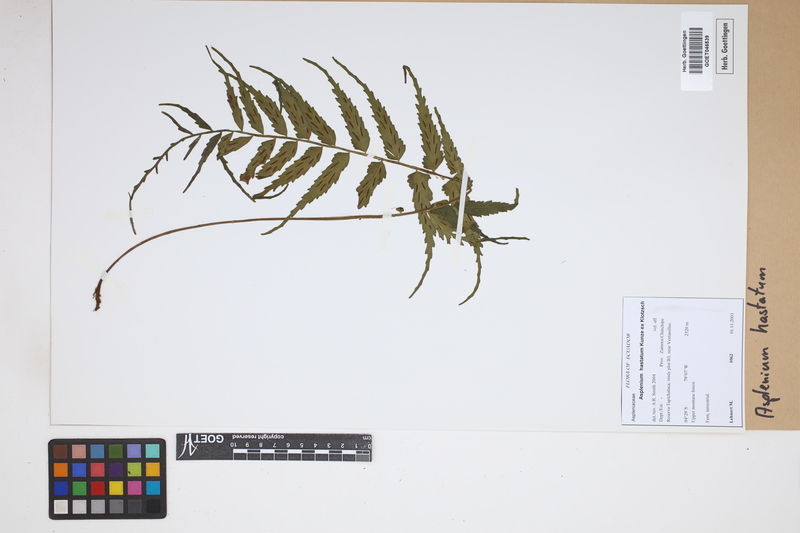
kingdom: Plantae
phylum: Tracheophyta
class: Polypodiopsida
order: Polypodiales
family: Aspleniaceae
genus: Asplenium
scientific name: Asplenium hastatum
